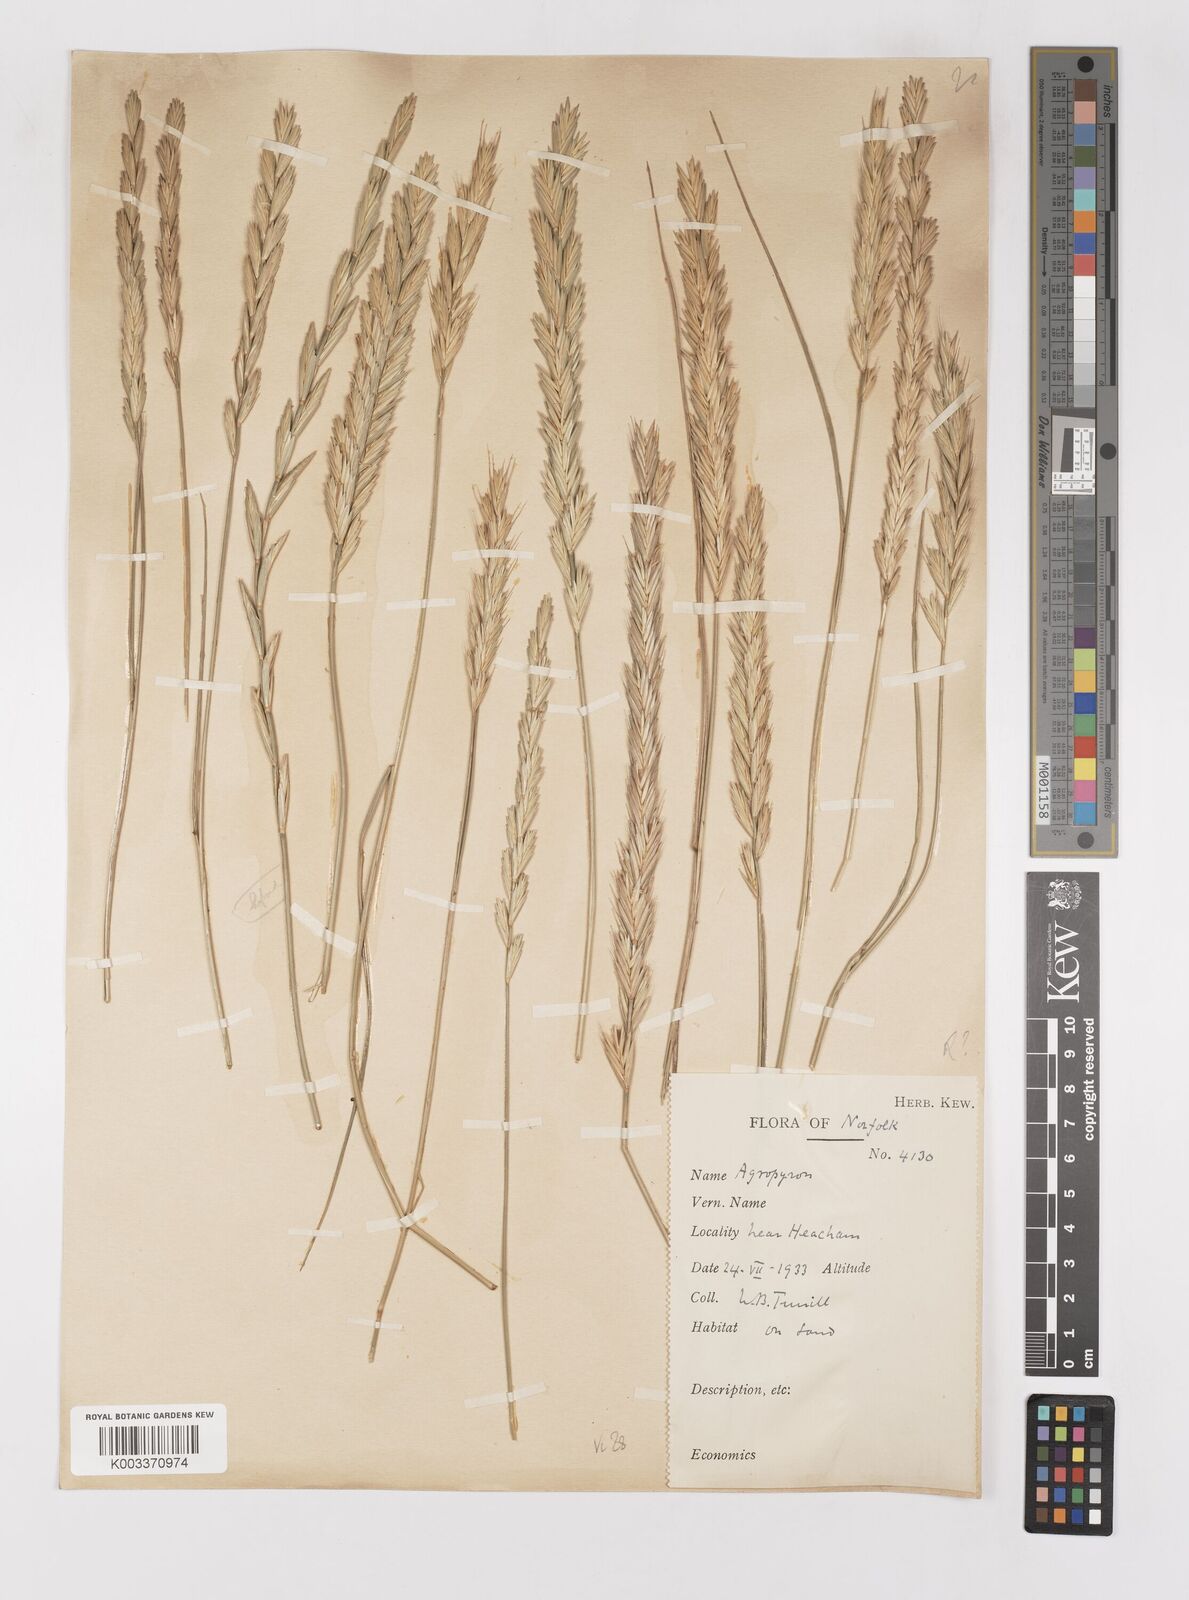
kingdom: Plantae
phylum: Tracheophyta
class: Liliopsida
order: Poales
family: Poaceae
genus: Elymus
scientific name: Elymus repens
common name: Quackgrass
